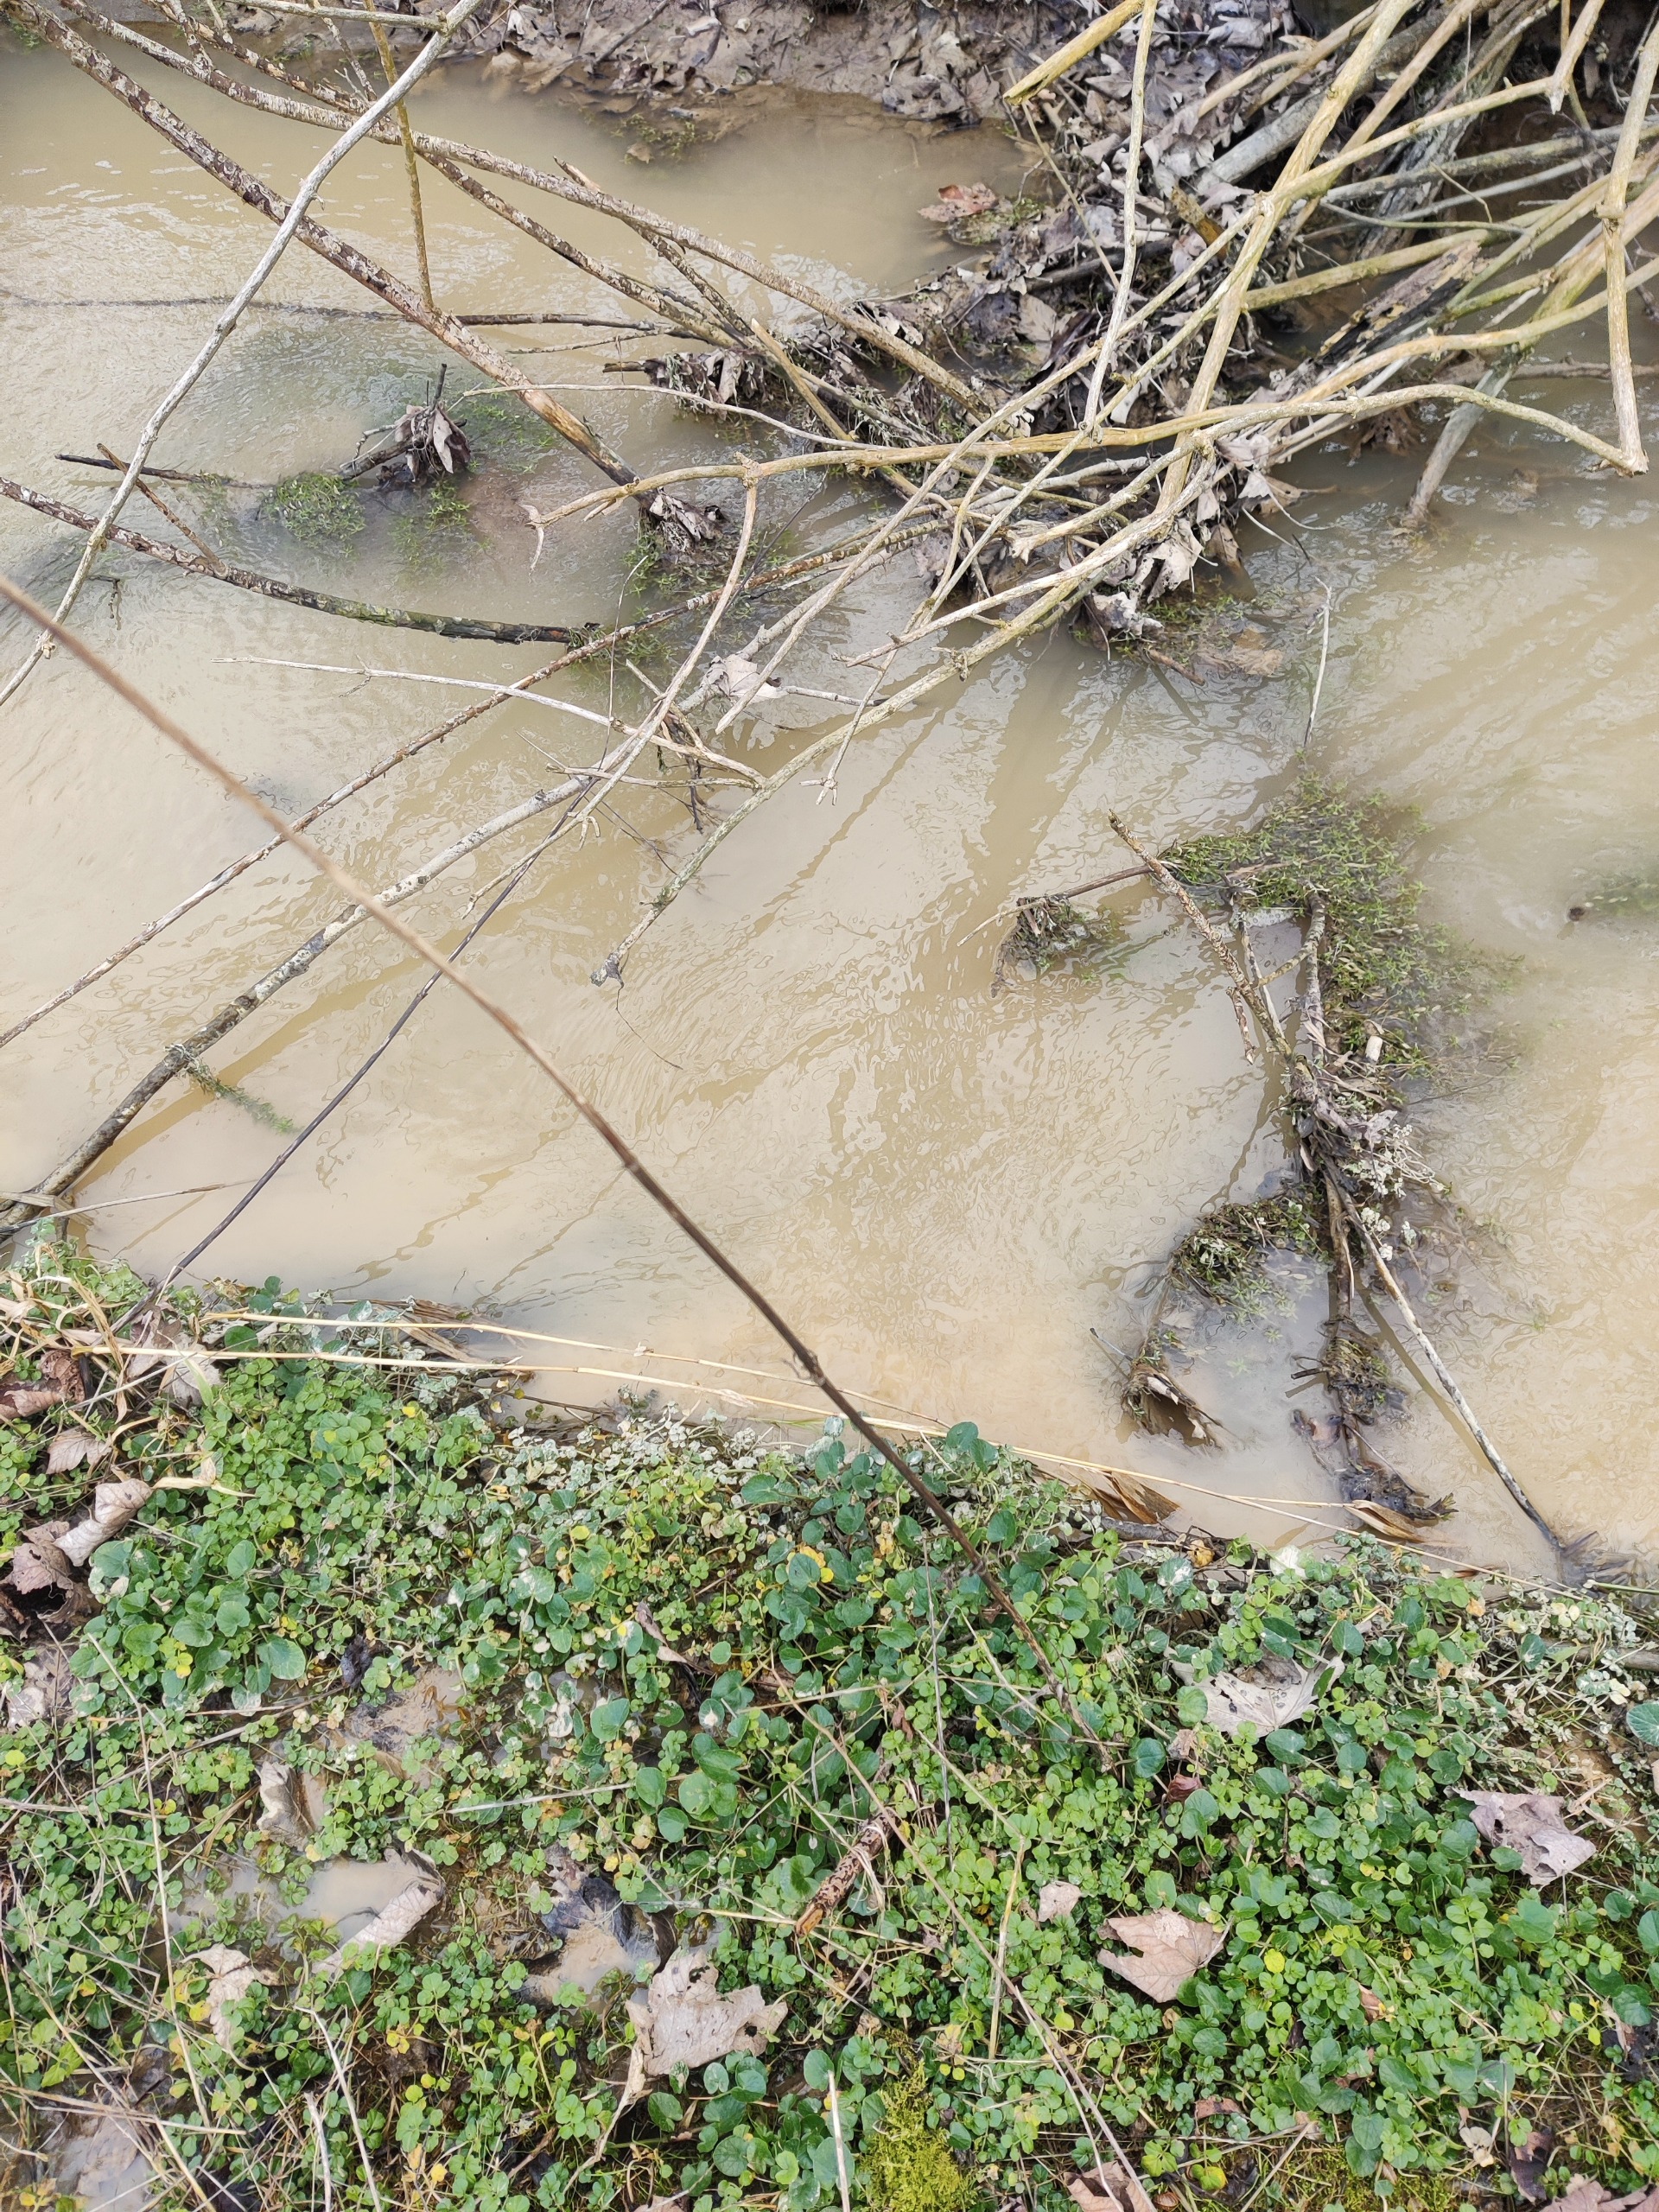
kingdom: Plantae
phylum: Tracheophyta
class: Magnoliopsida
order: Ranunculales
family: Ranunculaceae
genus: Ficaria
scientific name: Ficaria verna
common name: Vorterod
